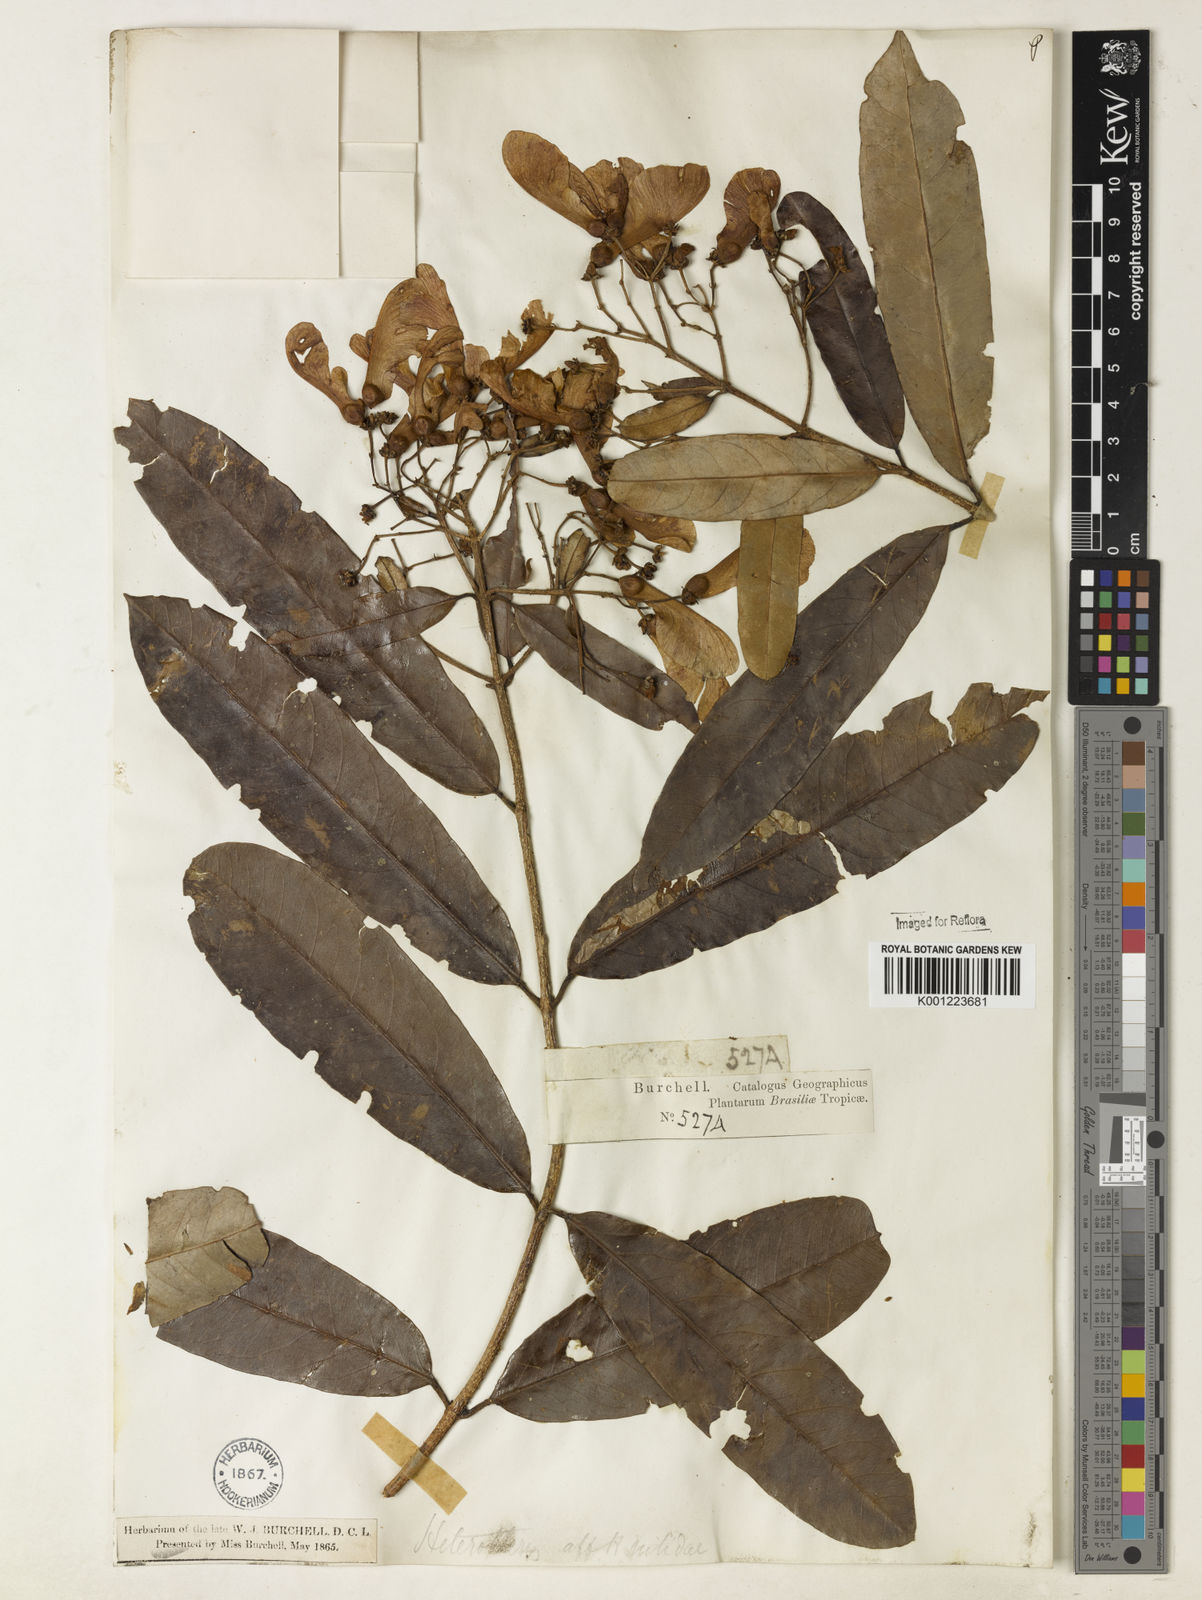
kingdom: Plantae
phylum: Tracheophyta
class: Magnoliopsida
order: Malpighiales
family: Malpighiaceae
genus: Heteropterys
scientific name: Heteropterys nitida
